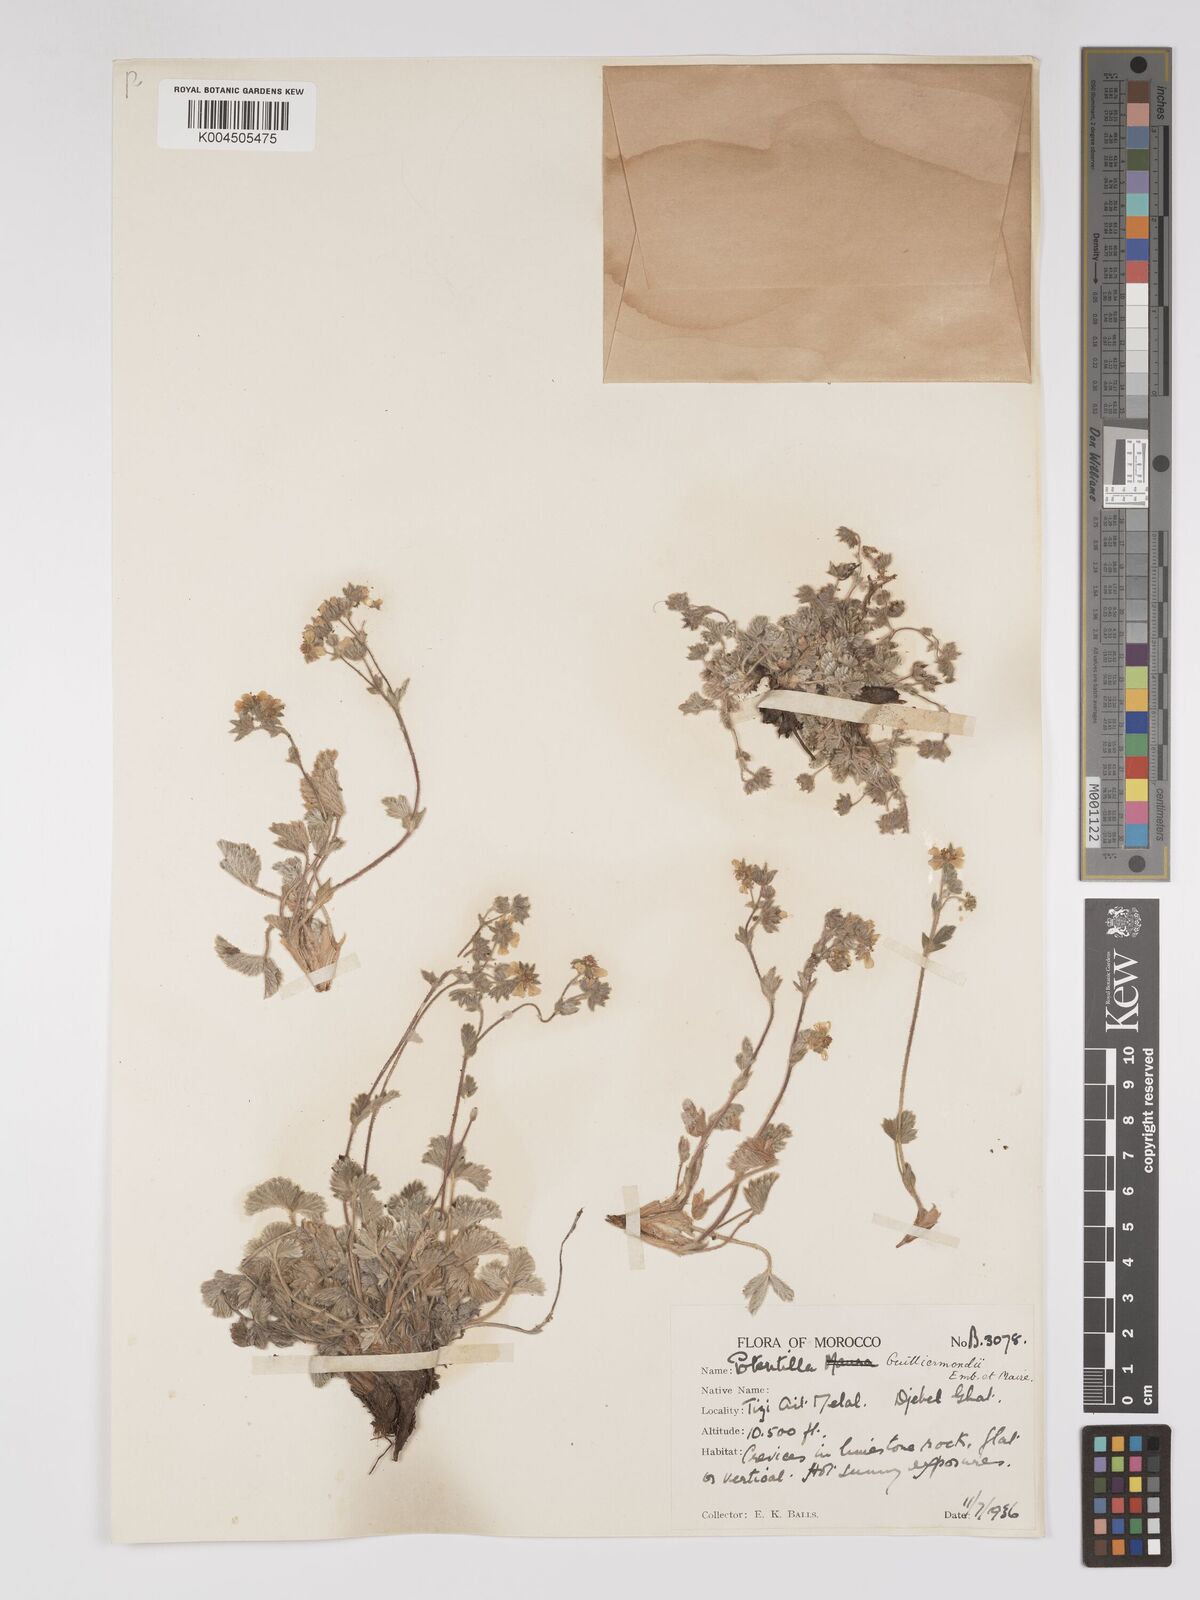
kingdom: Plantae
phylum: Tracheophyta
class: Magnoliopsida
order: Rosales
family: Rosaceae
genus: Potentilla
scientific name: Potentilla maura
